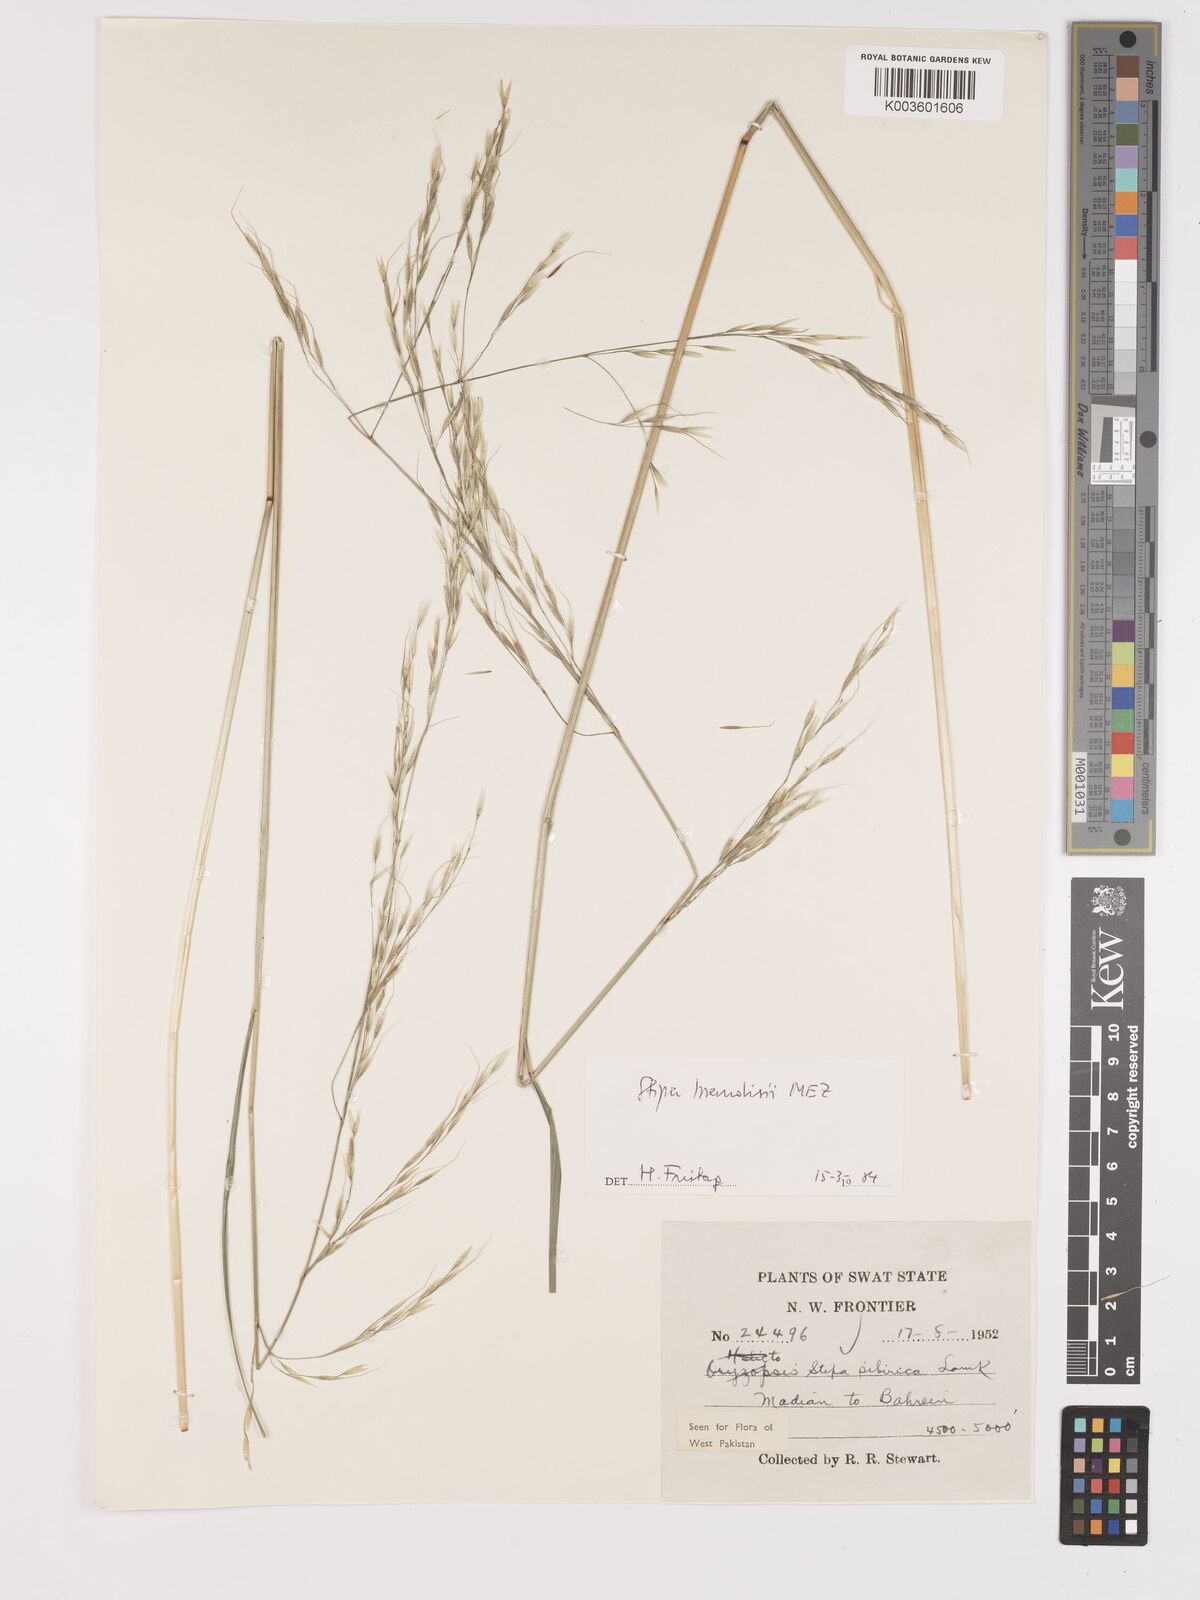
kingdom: Plantae
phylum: Tracheophyta
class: Liliopsida
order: Poales
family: Poaceae
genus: Achnatherum
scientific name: Achnatherum brandisii
